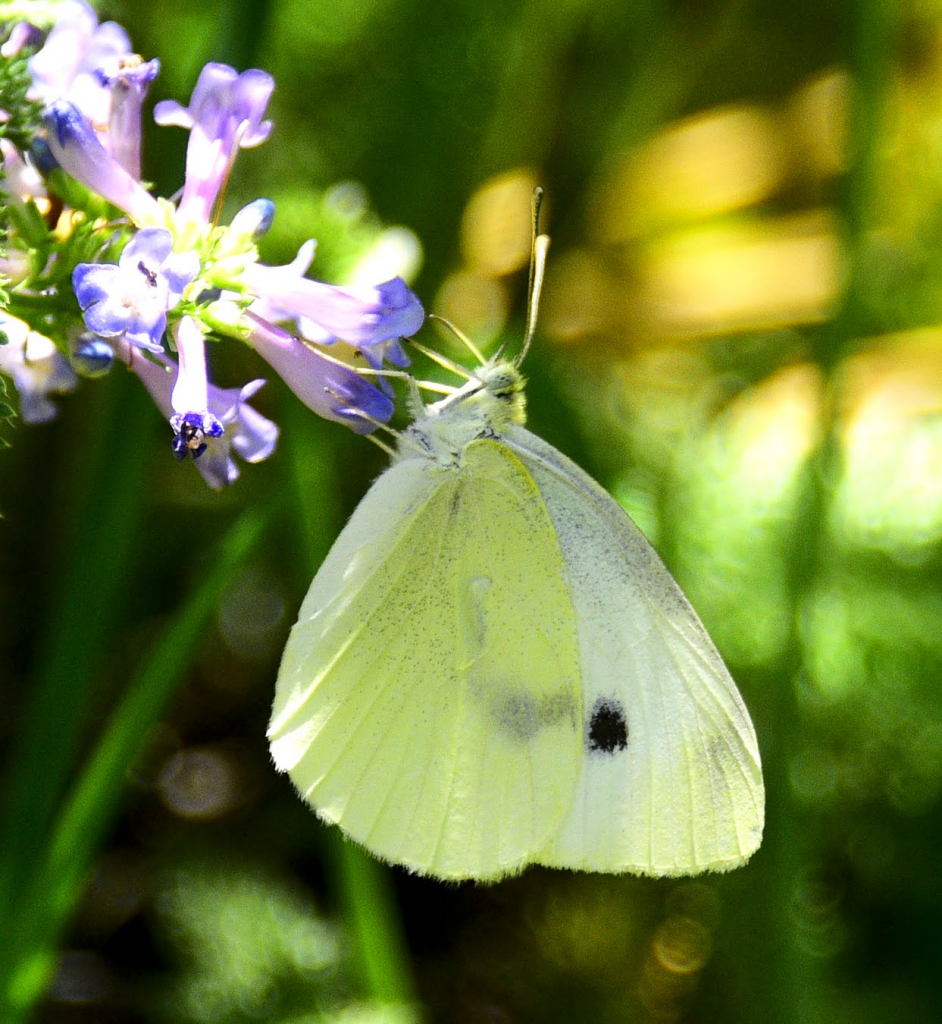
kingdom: Animalia
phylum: Arthropoda
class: Insecta
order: Lepidoptera
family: Pieridae
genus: Pieris
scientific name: Pieris rapae
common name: Cabbage White
